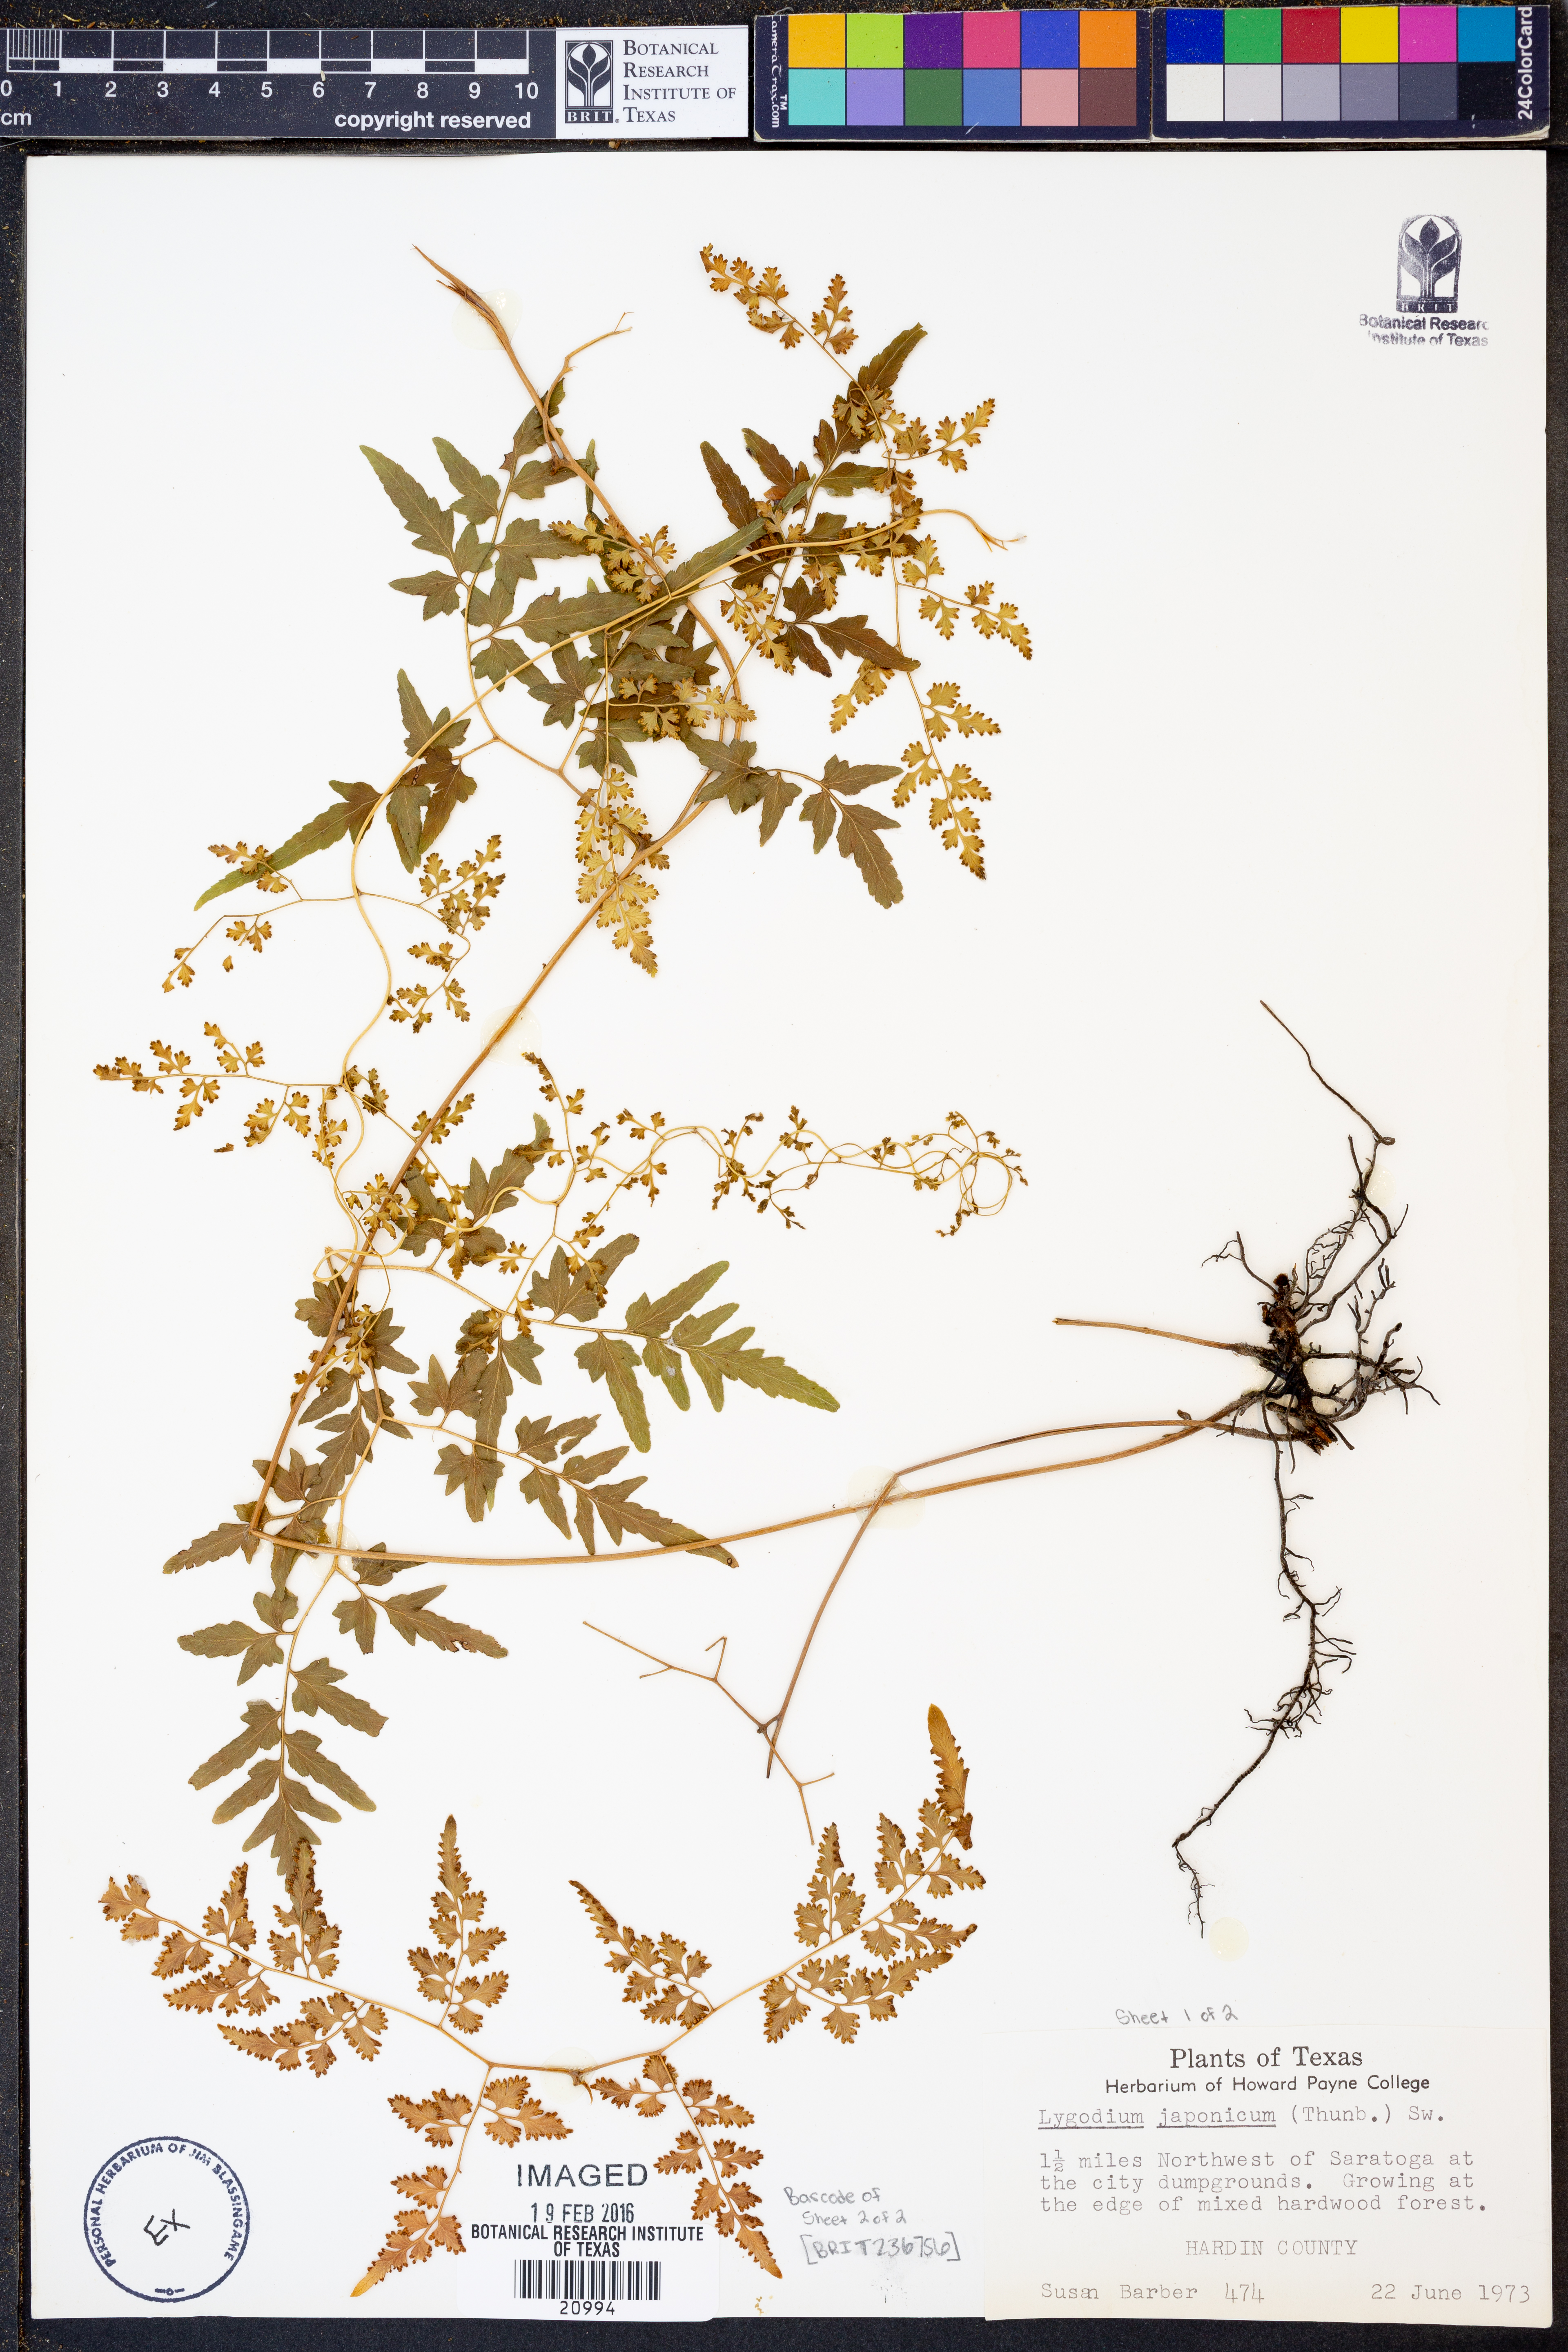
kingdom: Plantae
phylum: Tracheophyta
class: Polypodiopsida
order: Schizaeales
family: Lygodiaceae
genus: Lygodium
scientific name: Lygodium japonicum
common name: Japanese climbing fern
